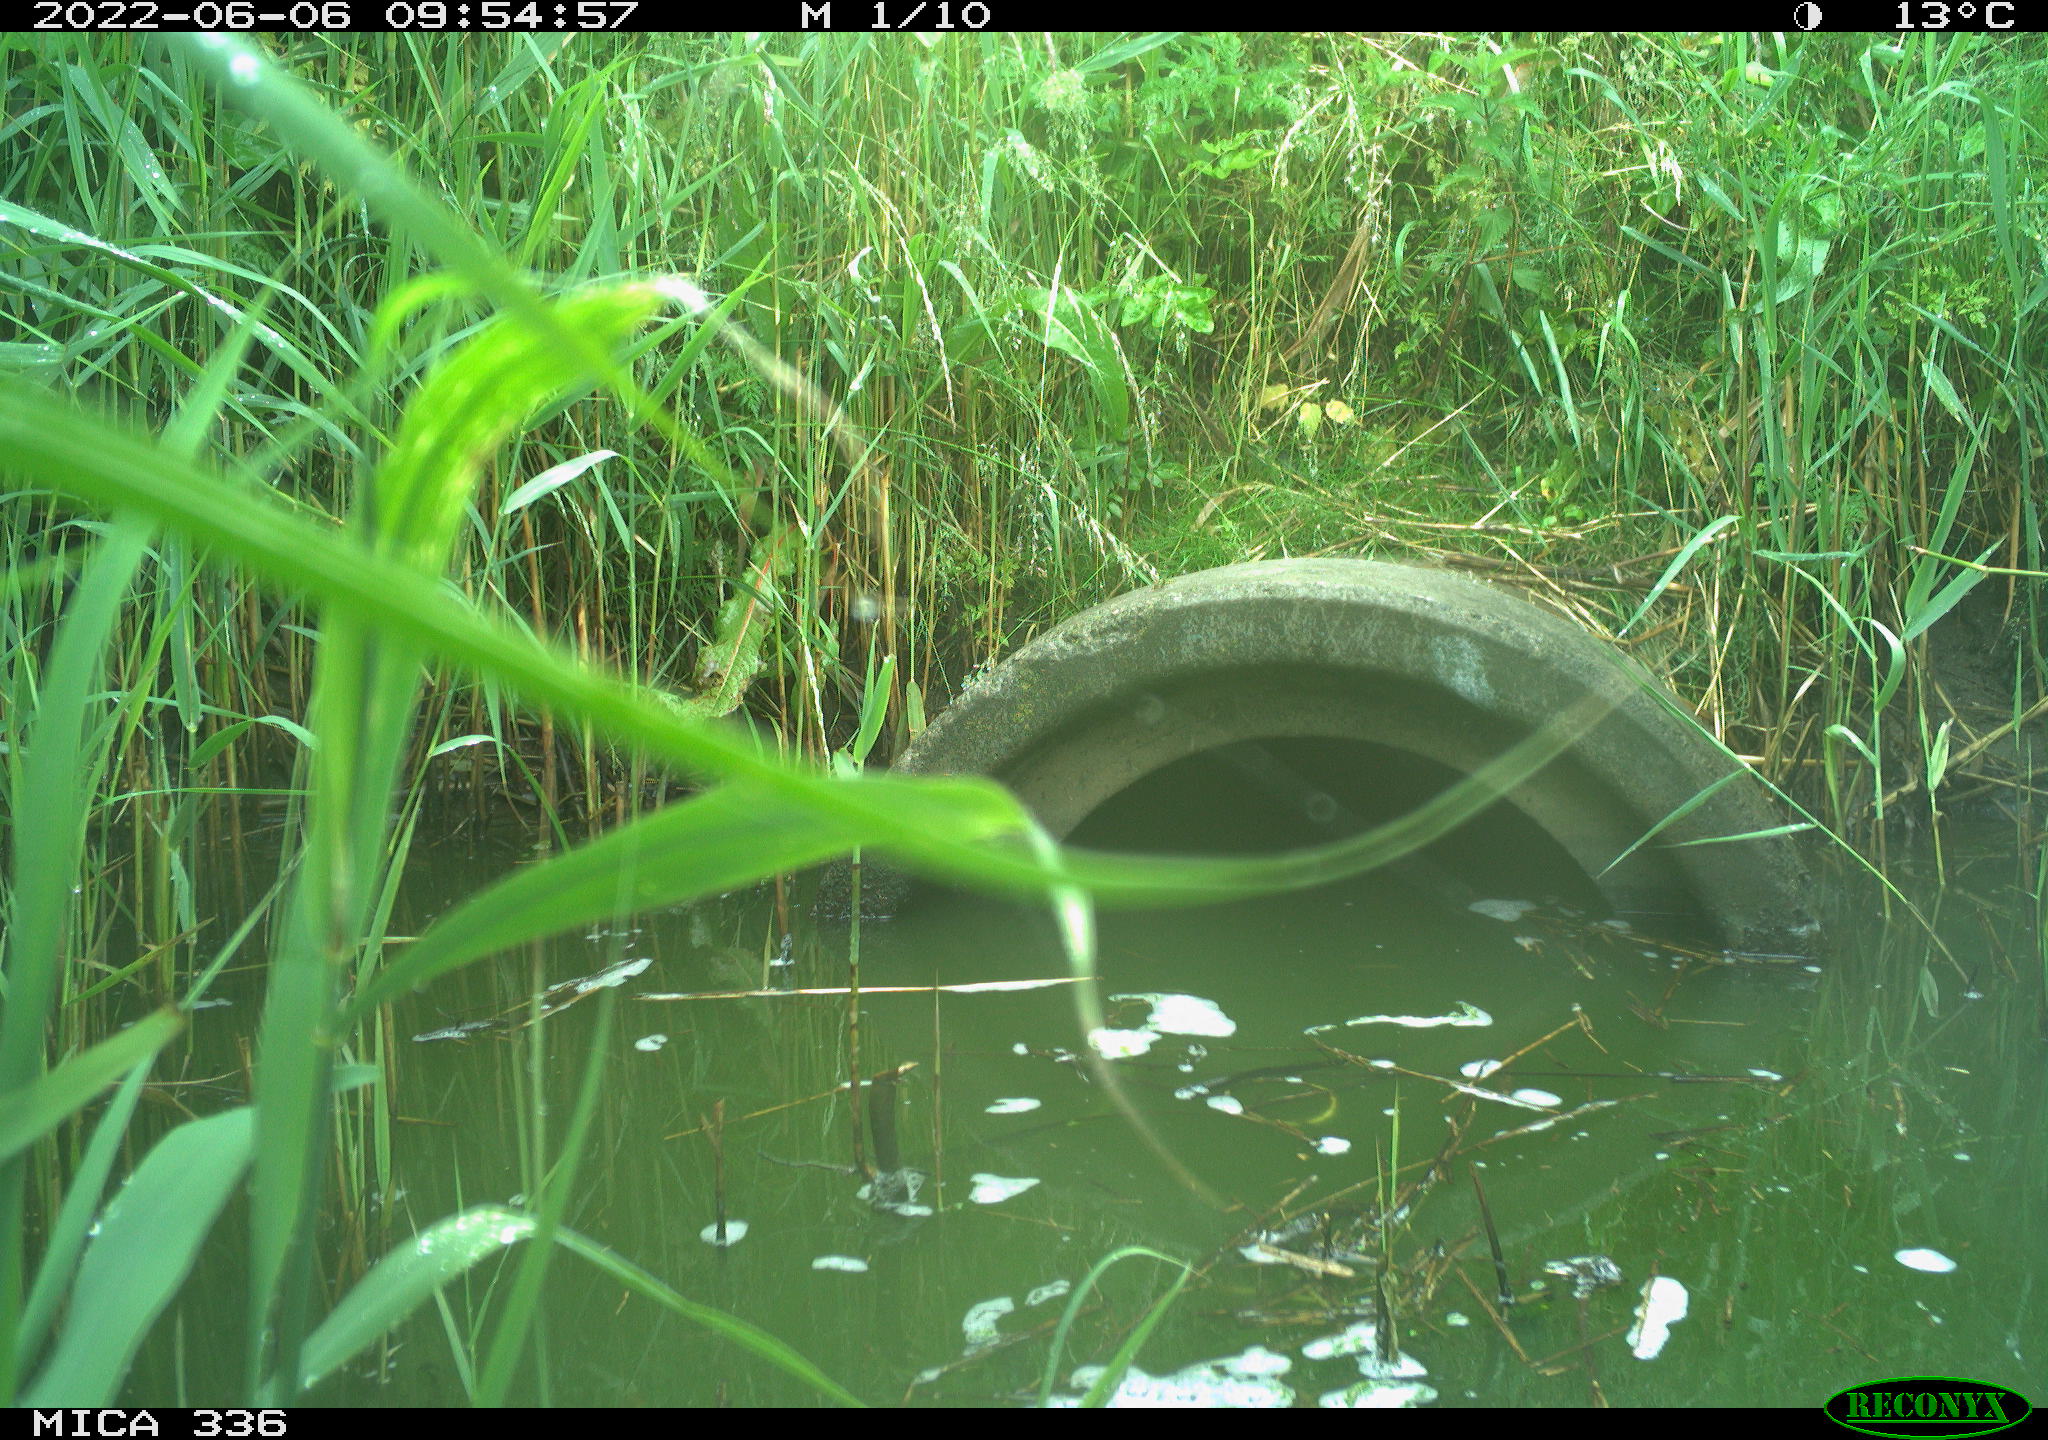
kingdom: Animalia
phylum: Chordata
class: Aves
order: Pelecaniformes
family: Ardeidae
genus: Ardea
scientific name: Ardea cinerea
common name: Grey heron
